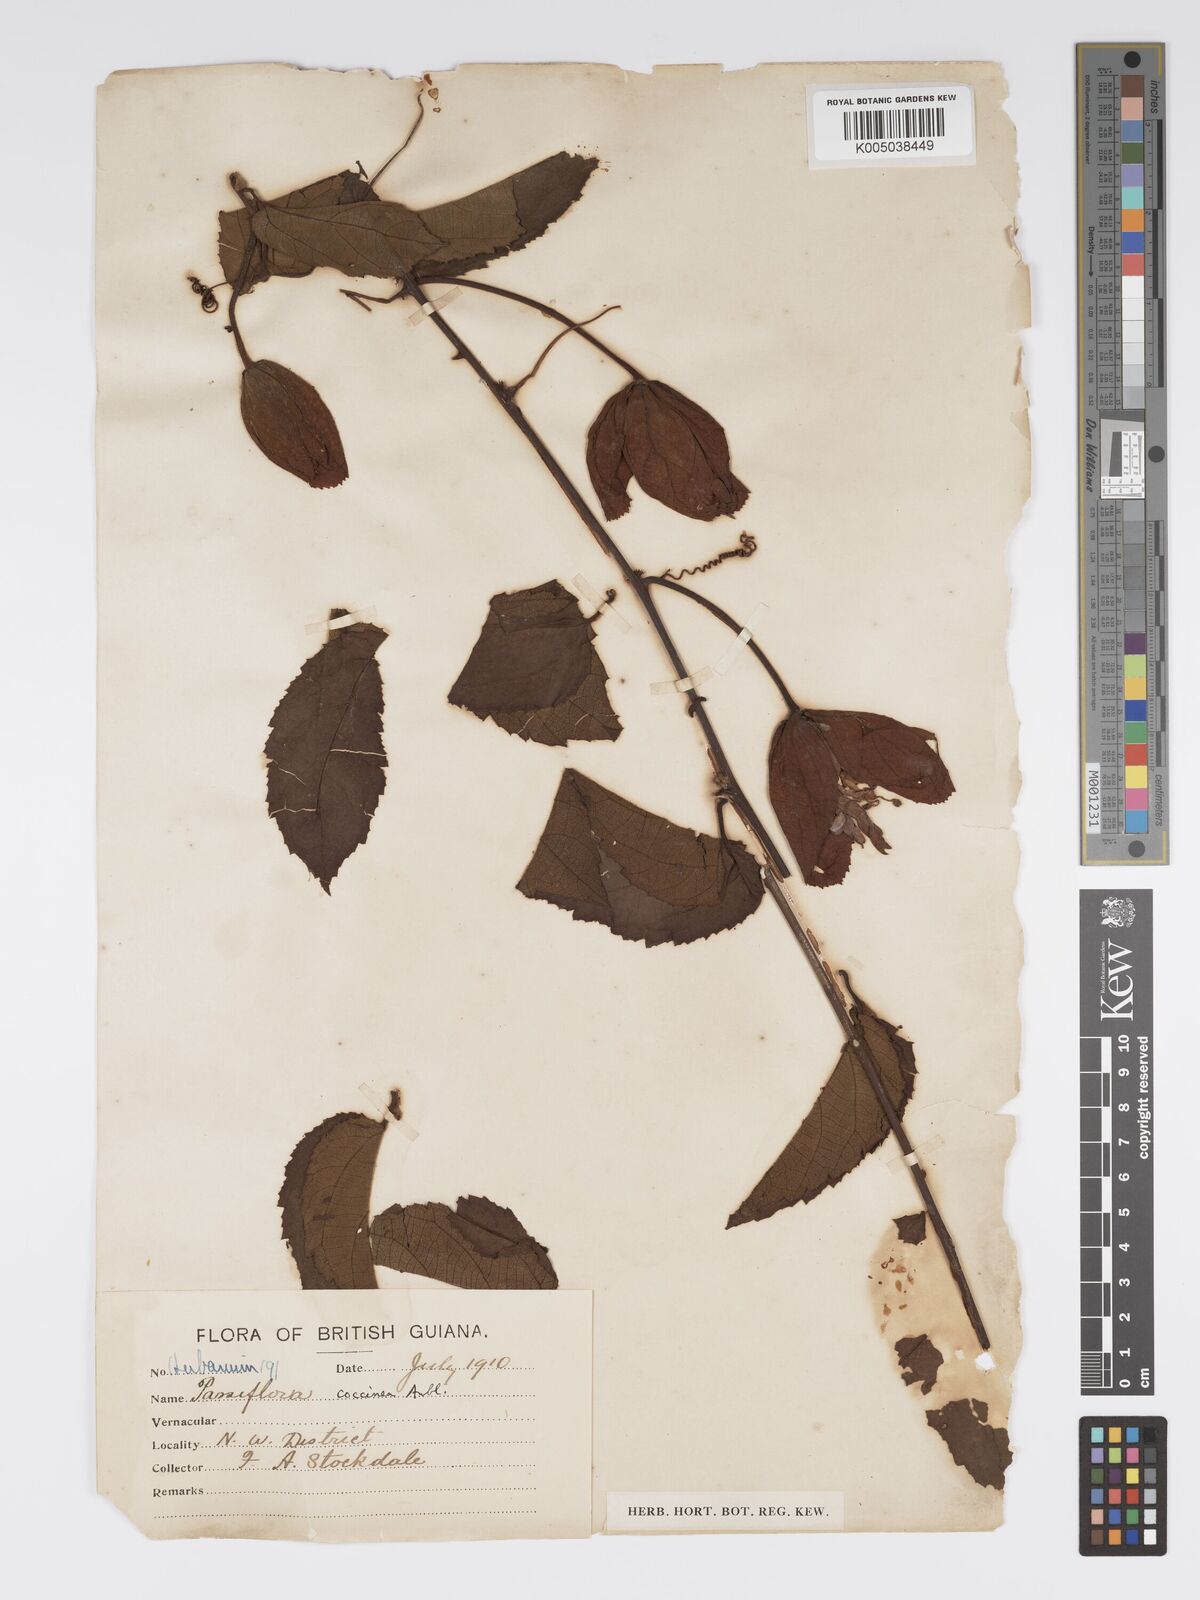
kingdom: Plantae
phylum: Tracheophyta
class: Magnoliopsida
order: Malpighiales
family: Passifloraceae
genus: Passiflora
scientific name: Passiflora coccinea
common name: Scarlet passionflower
